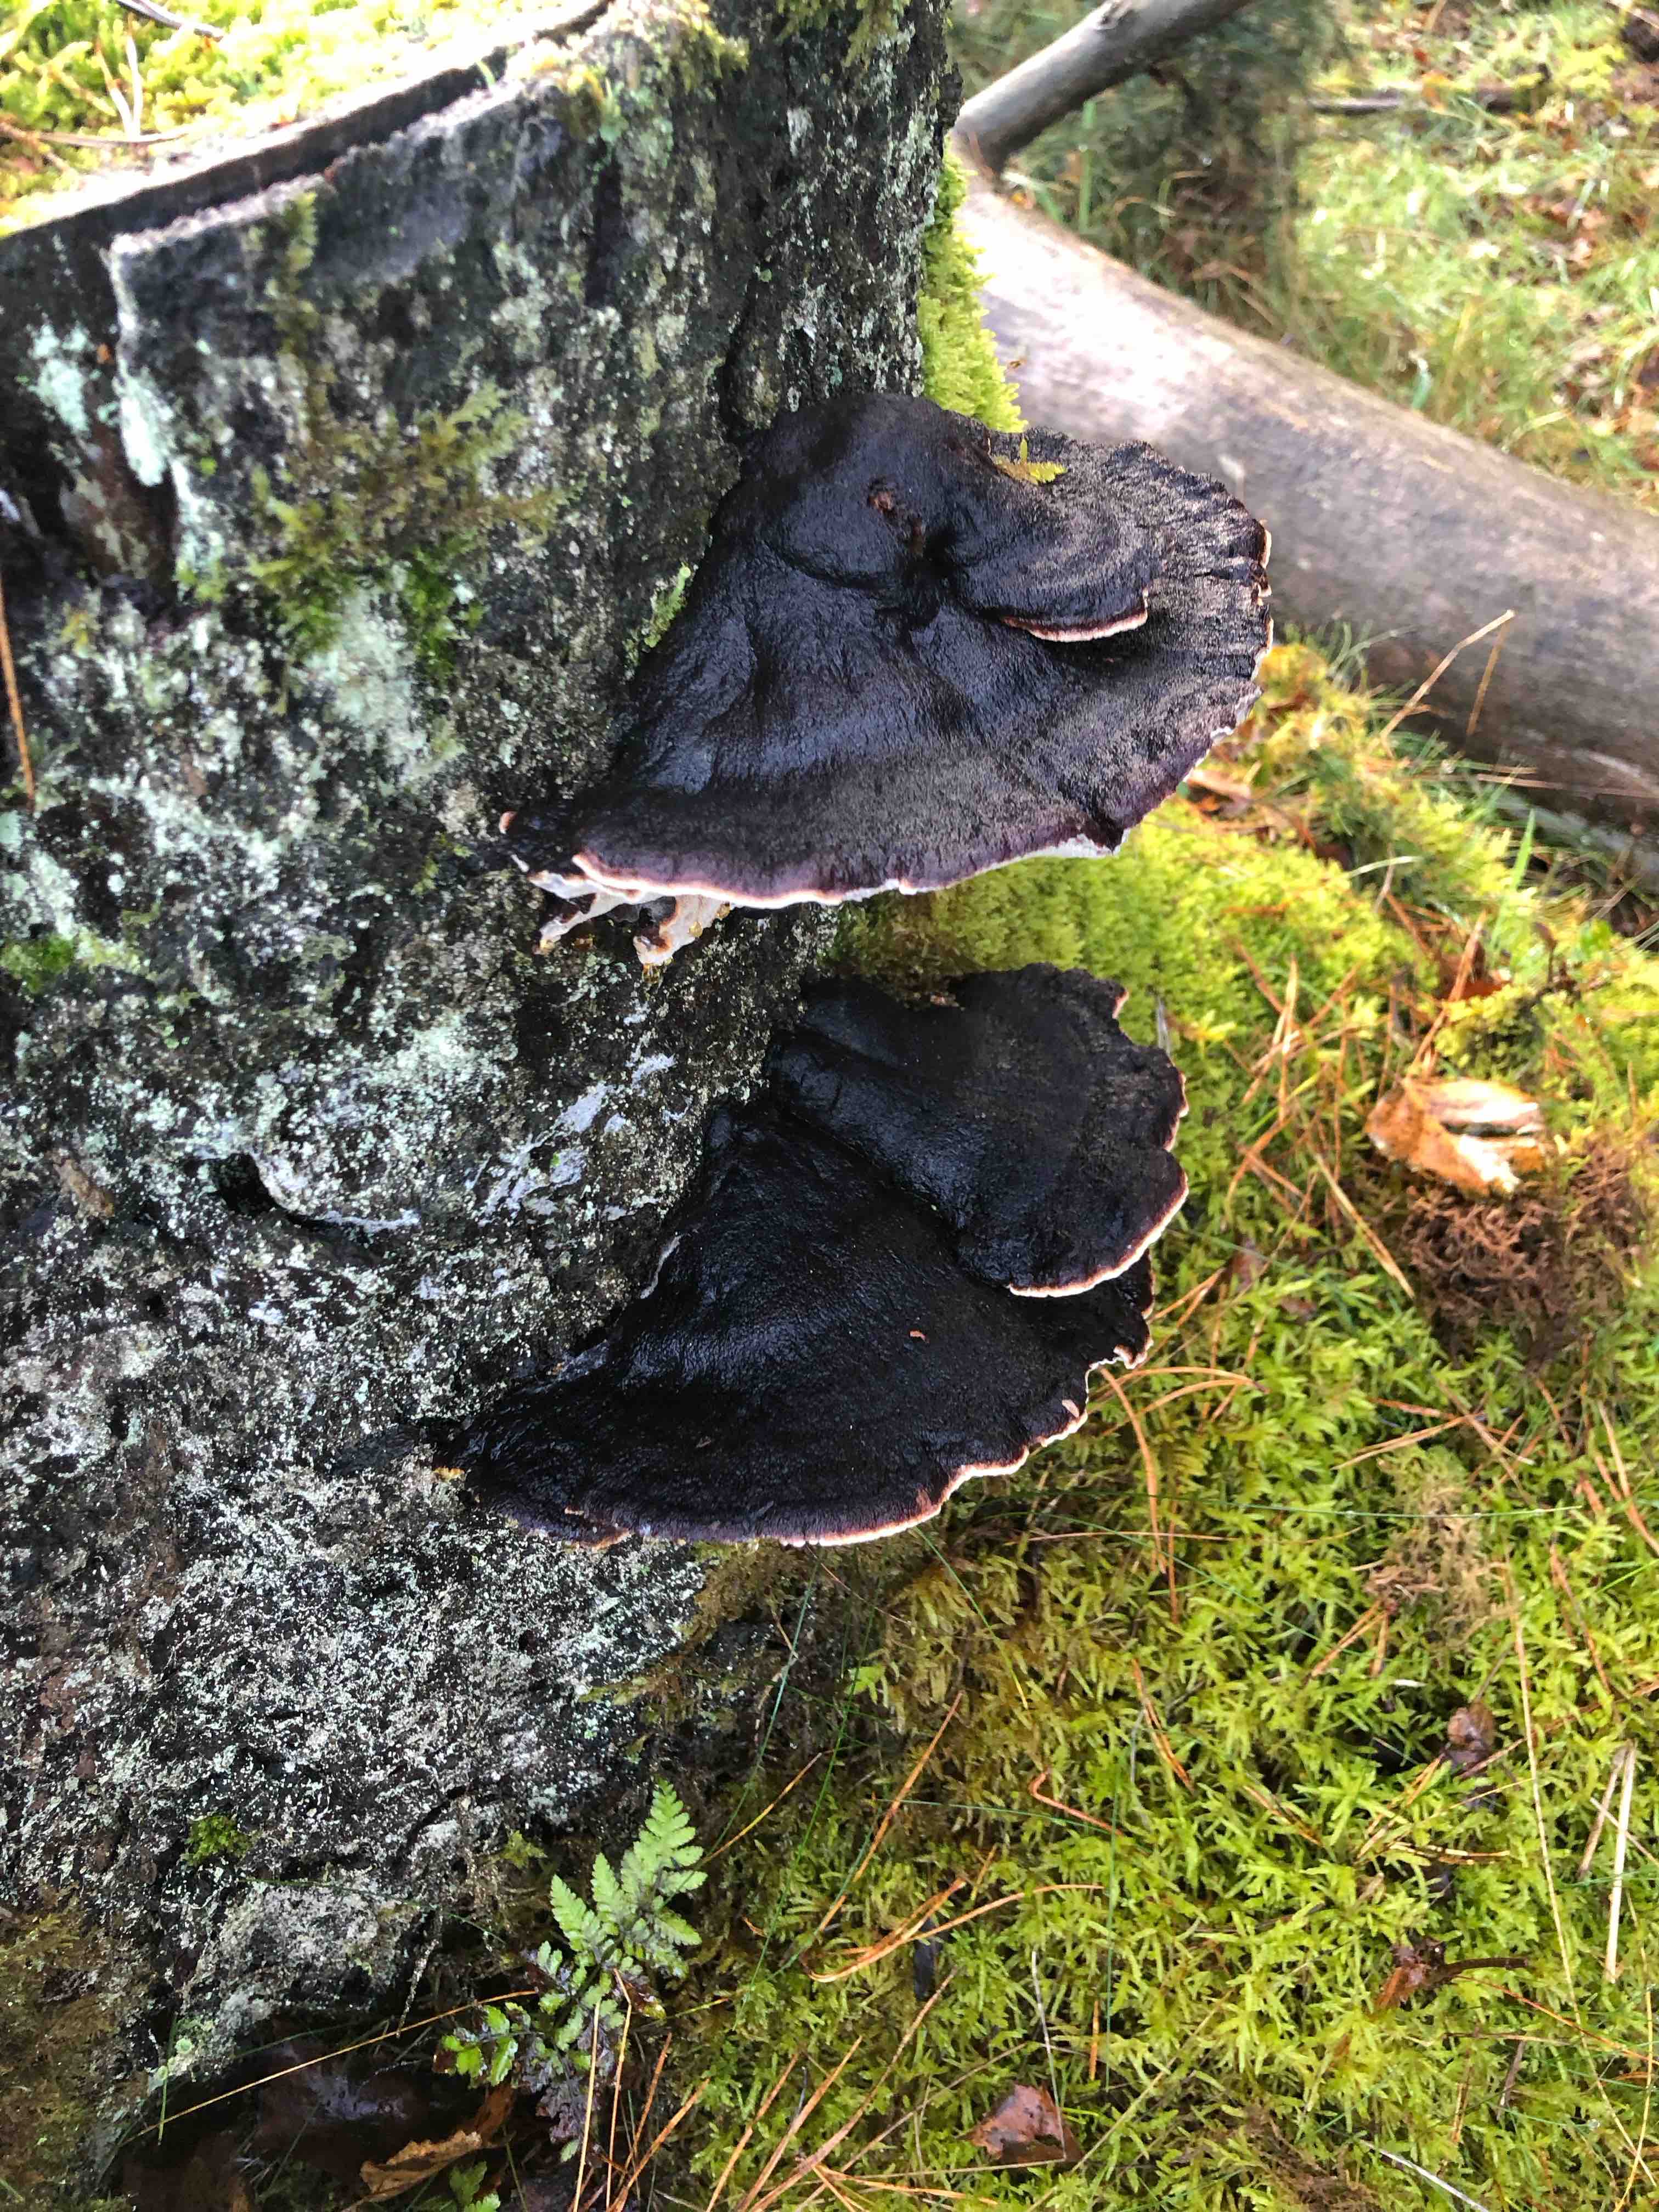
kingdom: Fungi
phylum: Basidiomycota
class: Agaricomycetes
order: Polyporales
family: Ischnodermataceae
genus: Ischnoderma
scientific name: Ischnoderma benzoinum
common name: gran-tjæreporesvamp
